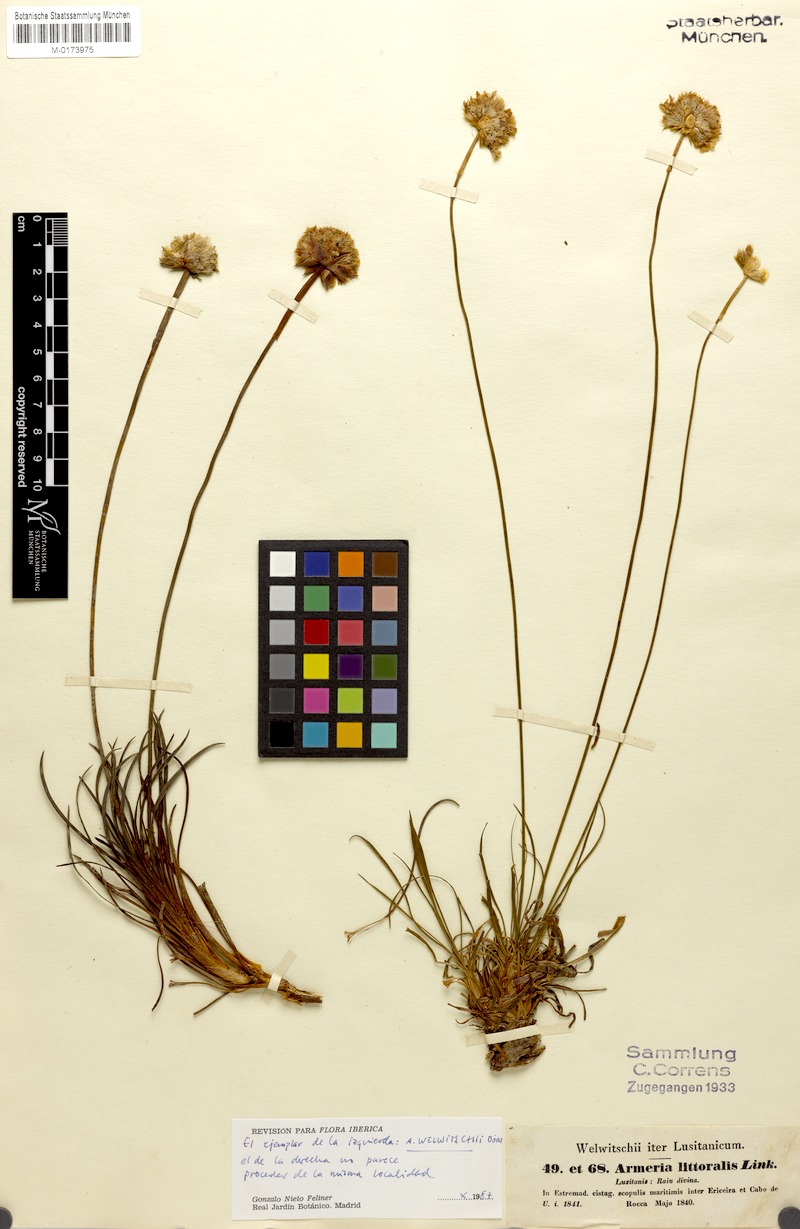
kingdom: Plantae
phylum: Tracheophyta
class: Magnoliopsida
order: Caryophyllales
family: Plumbaginaceae
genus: Armeria
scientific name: Armeria welwitschii
